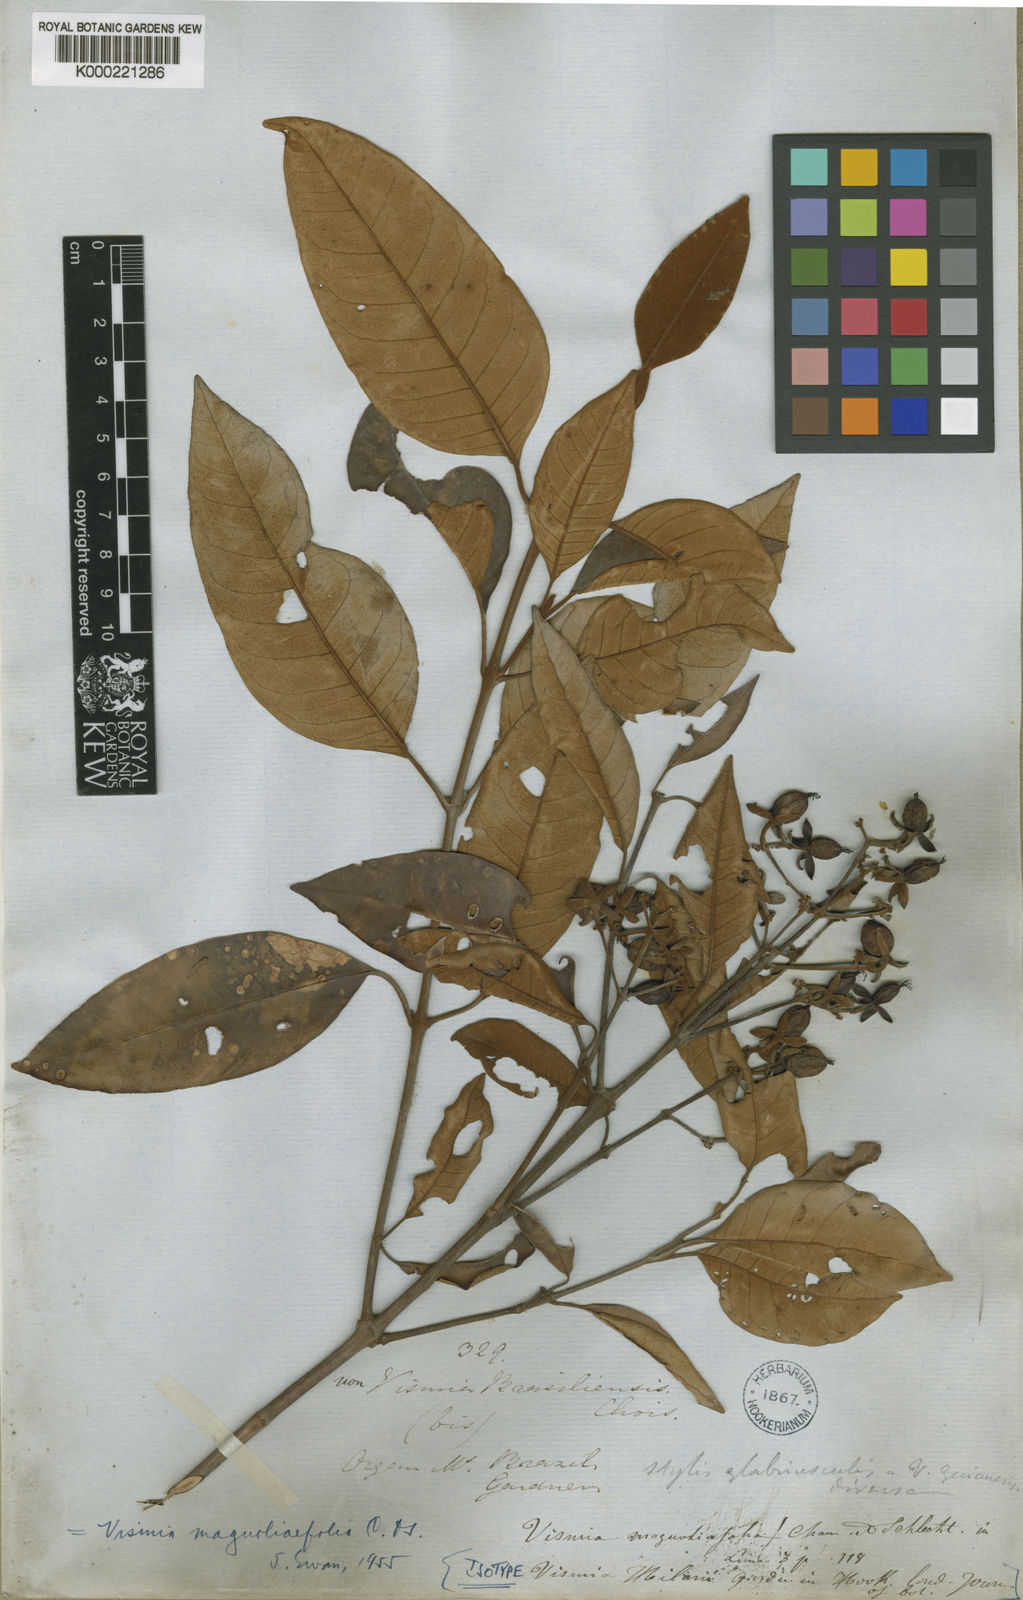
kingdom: Plantae
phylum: Tracheophyta
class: Magnoliopsida
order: Malpighiales
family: Hypericaceae
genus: Vismia
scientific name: Vismia magnoliifolia
